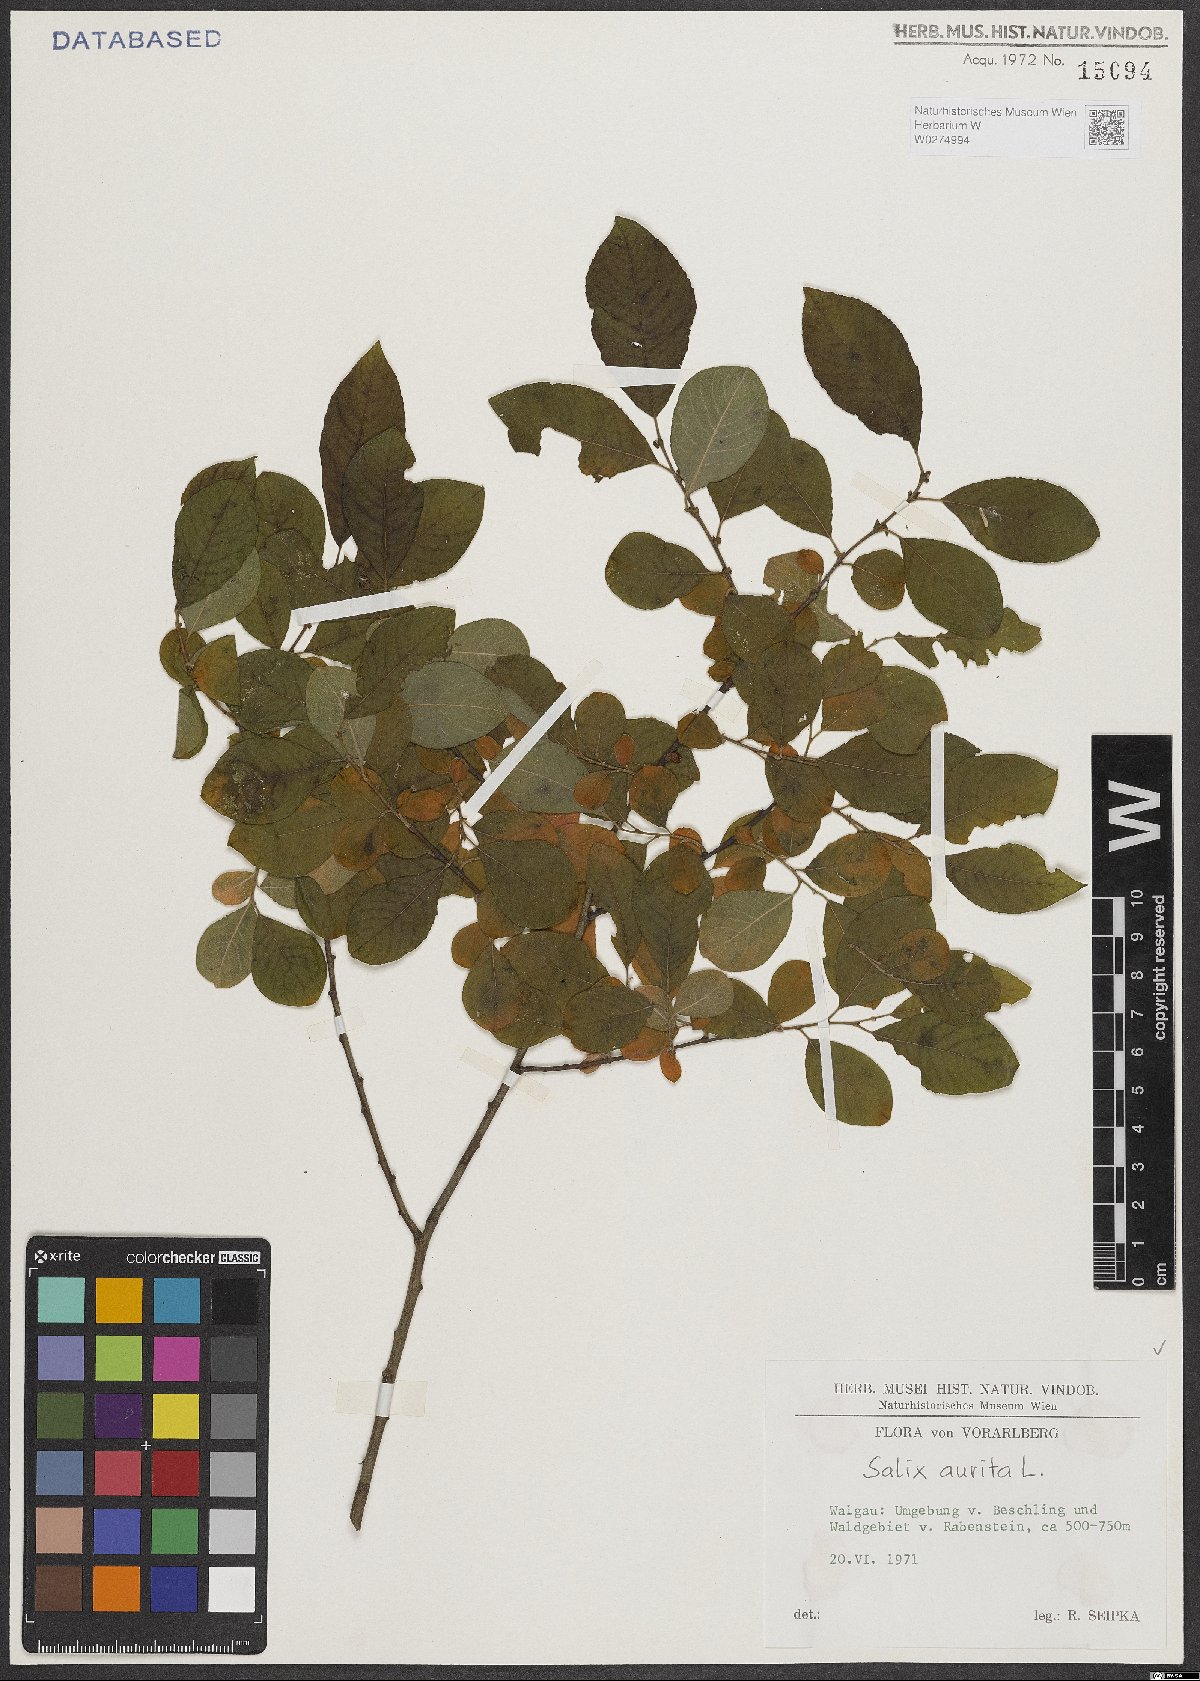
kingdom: Plantae
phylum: Tracheophyta
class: Magnoliopsida
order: Malpighiales
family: Salicaceae
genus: Salix
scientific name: Salix aurita
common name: Eared willow
